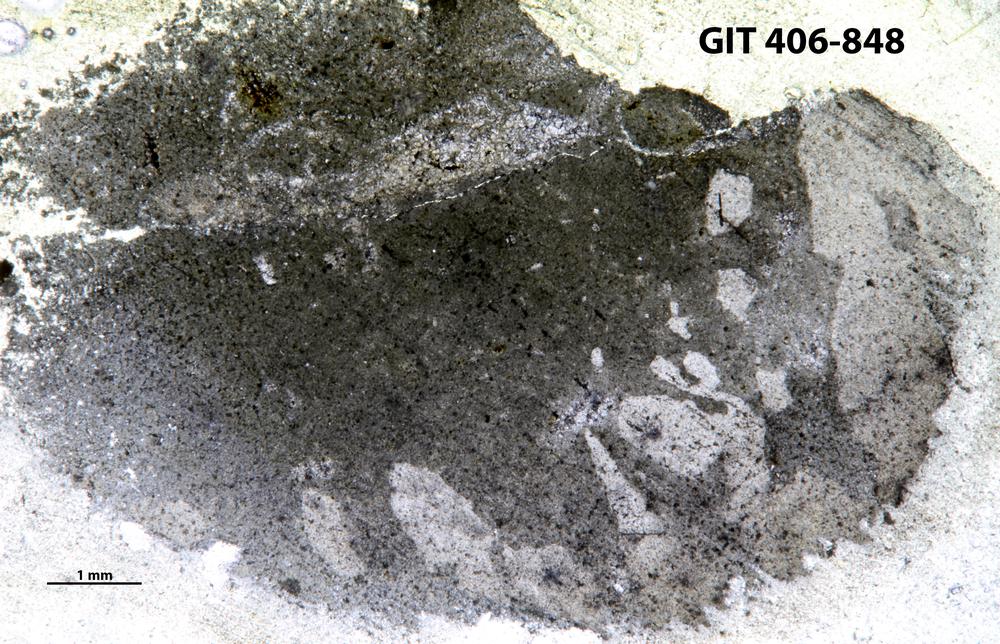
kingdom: Animalia
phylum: Cnidaria
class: Anthozoa
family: Streptelasmatidae
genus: Leolasma
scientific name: Leolasma reimani
